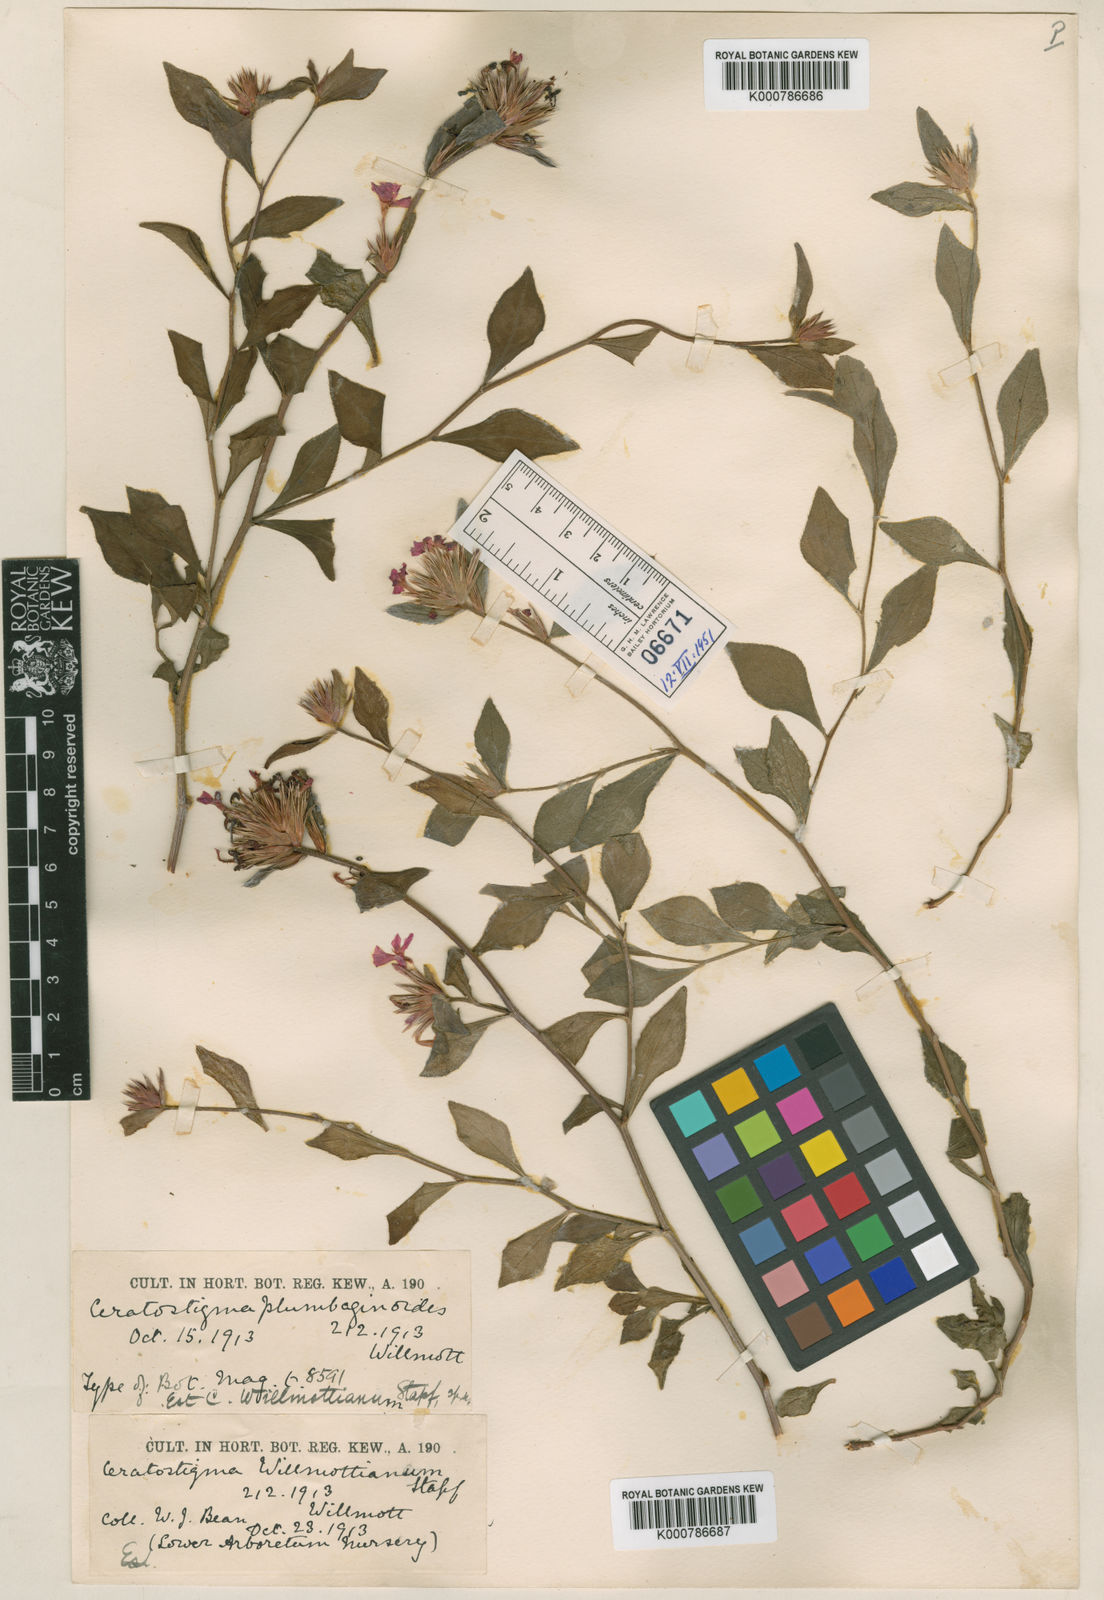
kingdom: Plantae
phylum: Tracheophyta
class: Magnoliopsida
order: Caryophyllales
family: Plumbaginaceae
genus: Ceratostigma
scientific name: Ceratostigma willmottianum
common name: Chinese-plumbago
